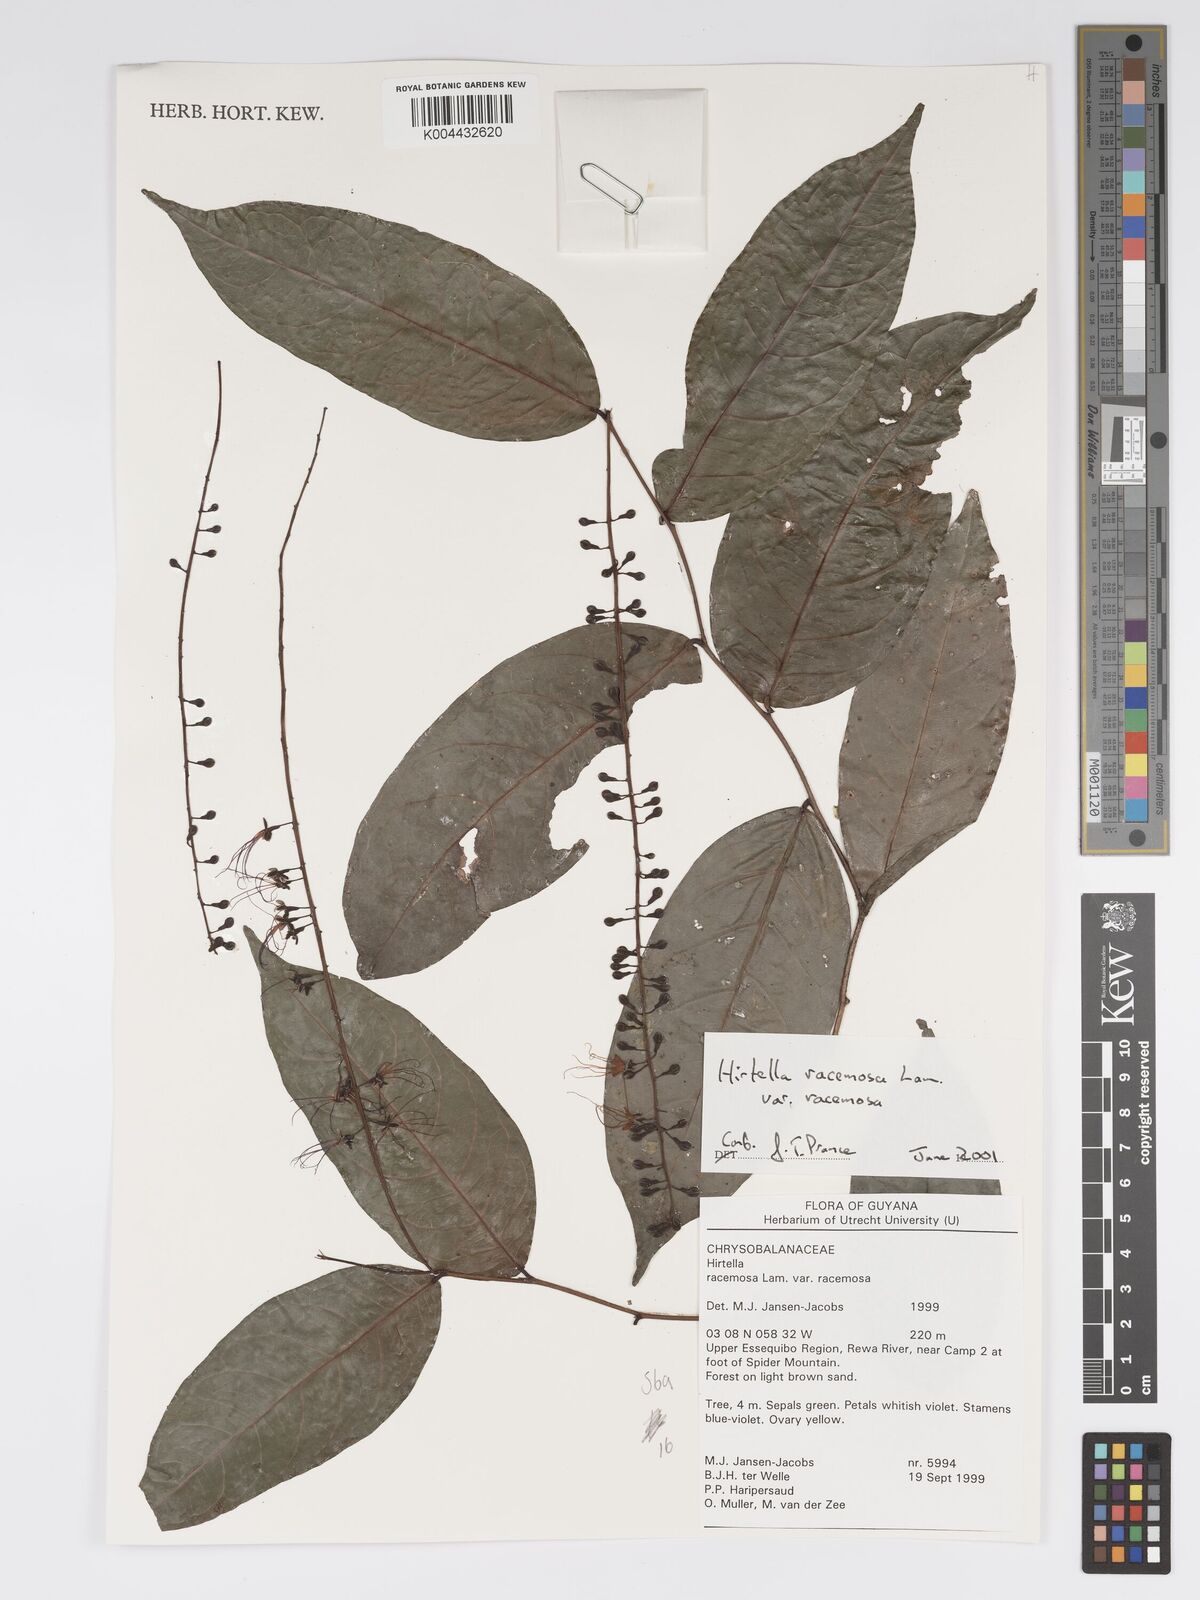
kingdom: Plantae
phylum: Tracheophyta
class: Magnoliopsida
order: Malpighiales
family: Chrysobalanaceae
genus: Hirtella
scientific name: Hirtella racemosa
